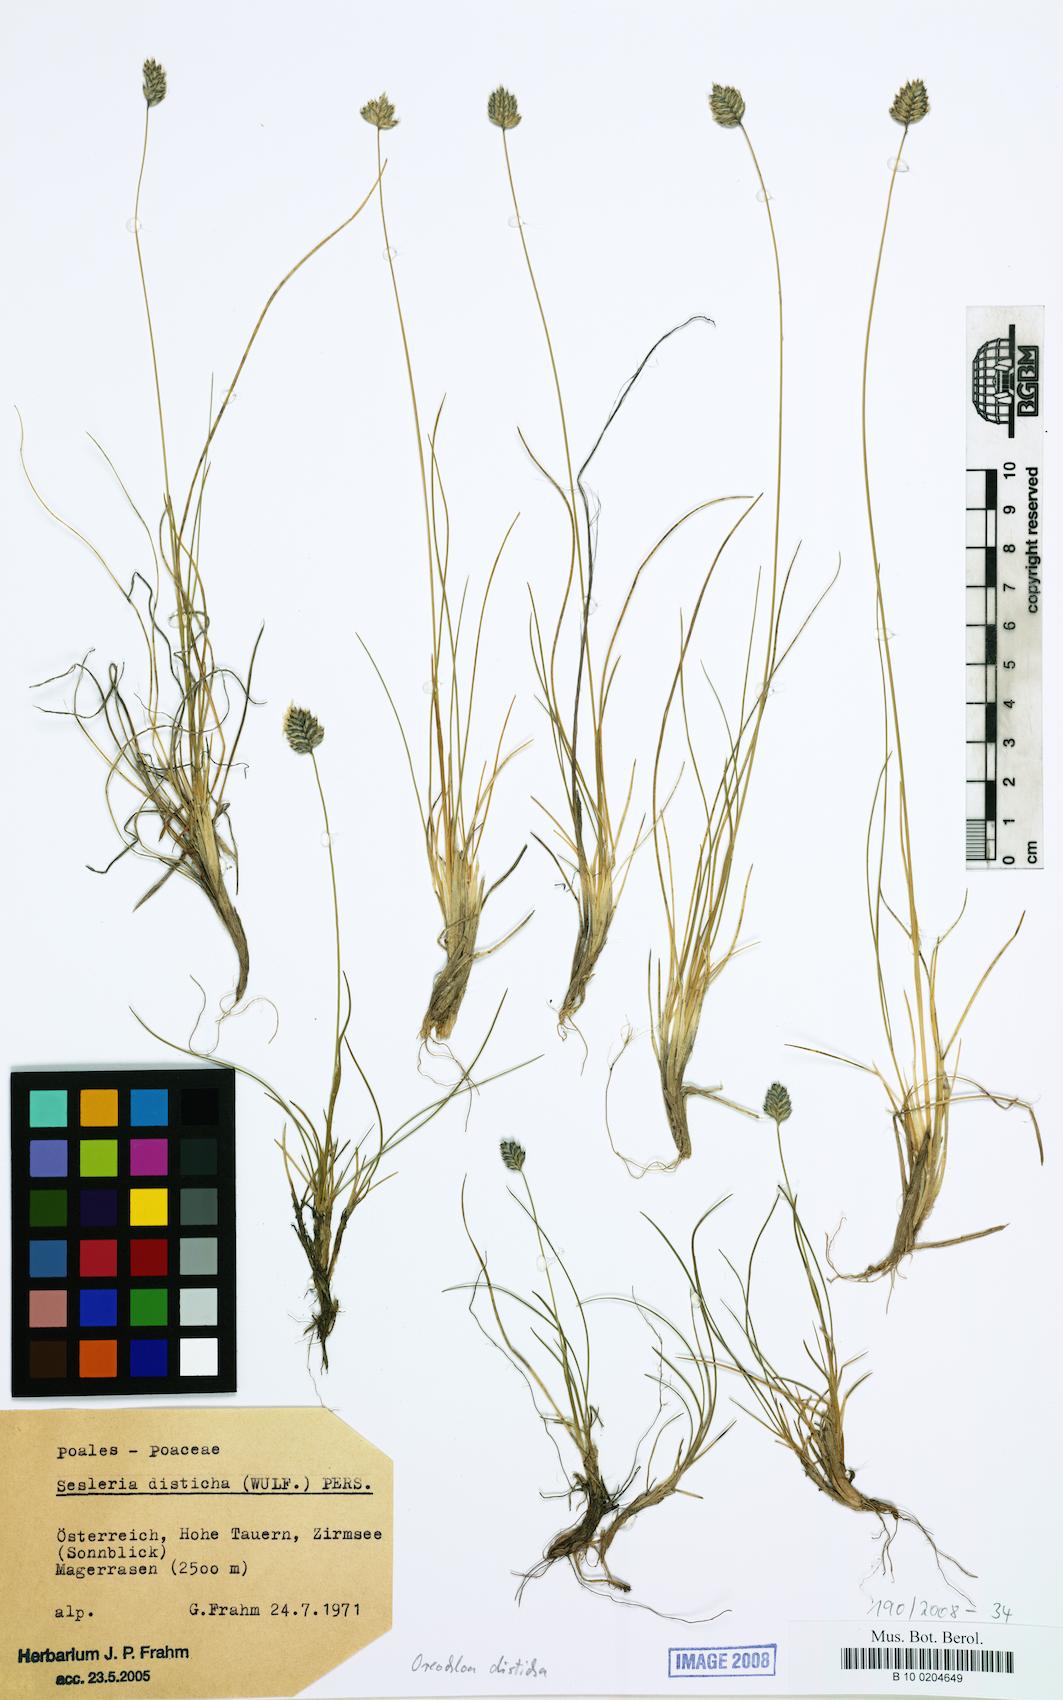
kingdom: Plantae
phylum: Tracheophyta
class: Liliopsida
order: Poales
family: Poaceae
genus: Oreochloa
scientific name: Oreochloa disticha
